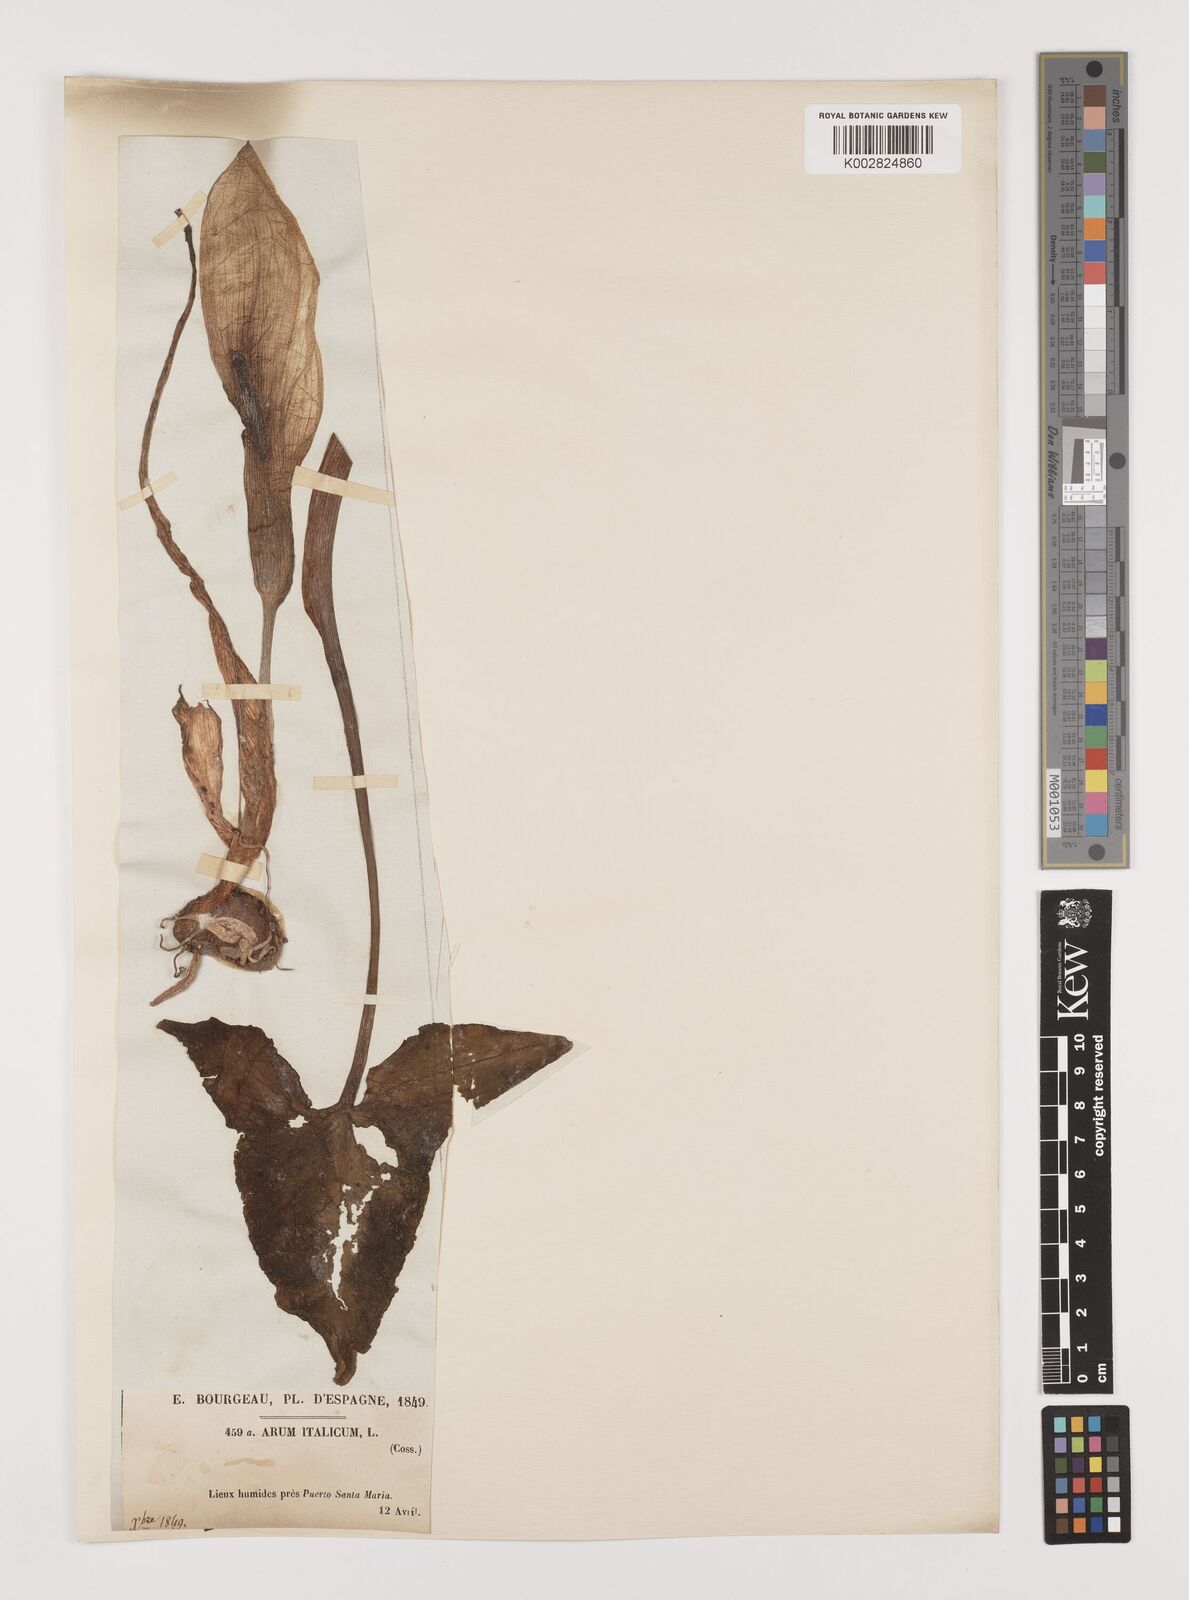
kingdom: Plantae
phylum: Tracheophyta
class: Liliopsida
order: Alismatales
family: Araceae
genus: Arum
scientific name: Arum italicum
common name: Italian lords-and-ladies
